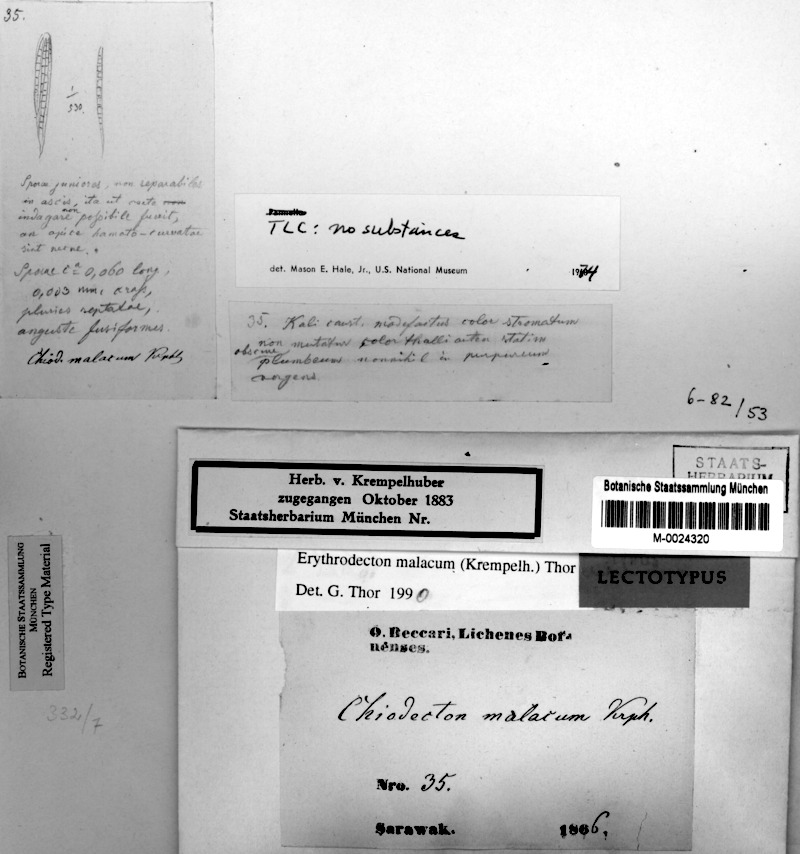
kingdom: Fungi
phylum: Ascomycota
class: Arthoniomycetes
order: Arthoniales
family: Roccellaceae
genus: Erythrodecton
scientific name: Erythrodecton malacum
